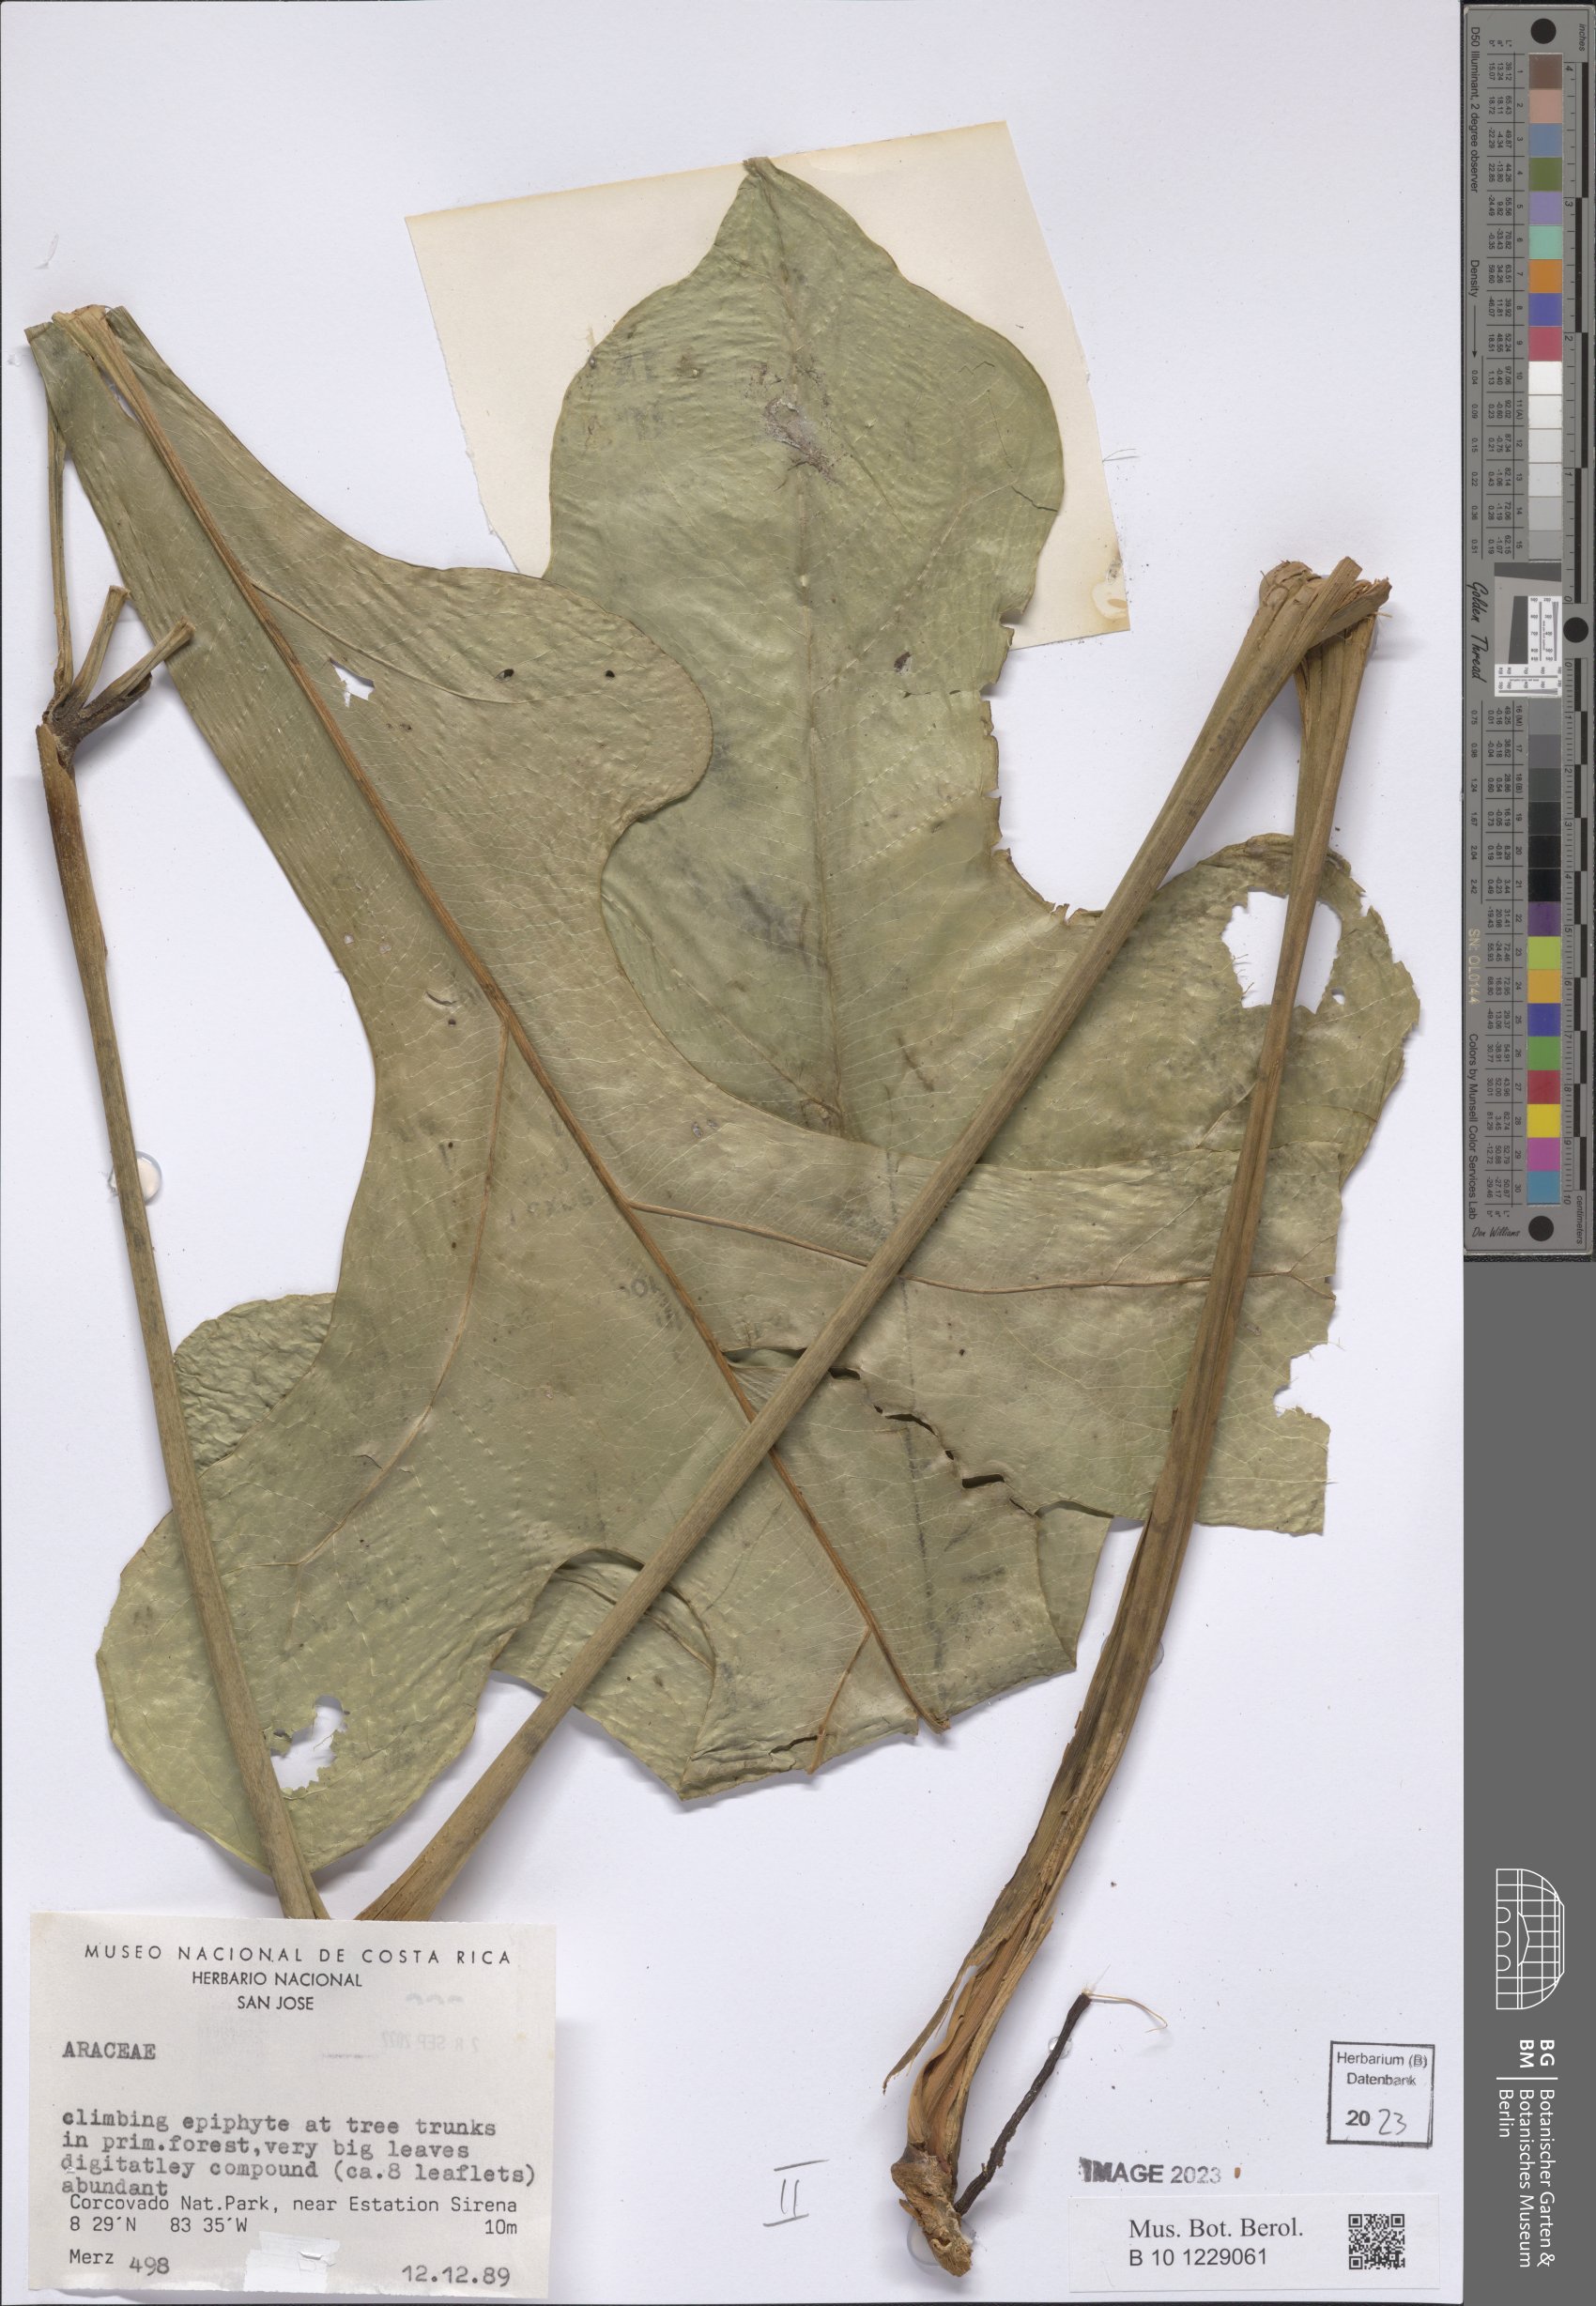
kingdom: Plantae
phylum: Tracheophyta
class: Liliopsida
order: Alismatales
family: Araceae
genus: Anthurium
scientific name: Anthurium clavigerum
